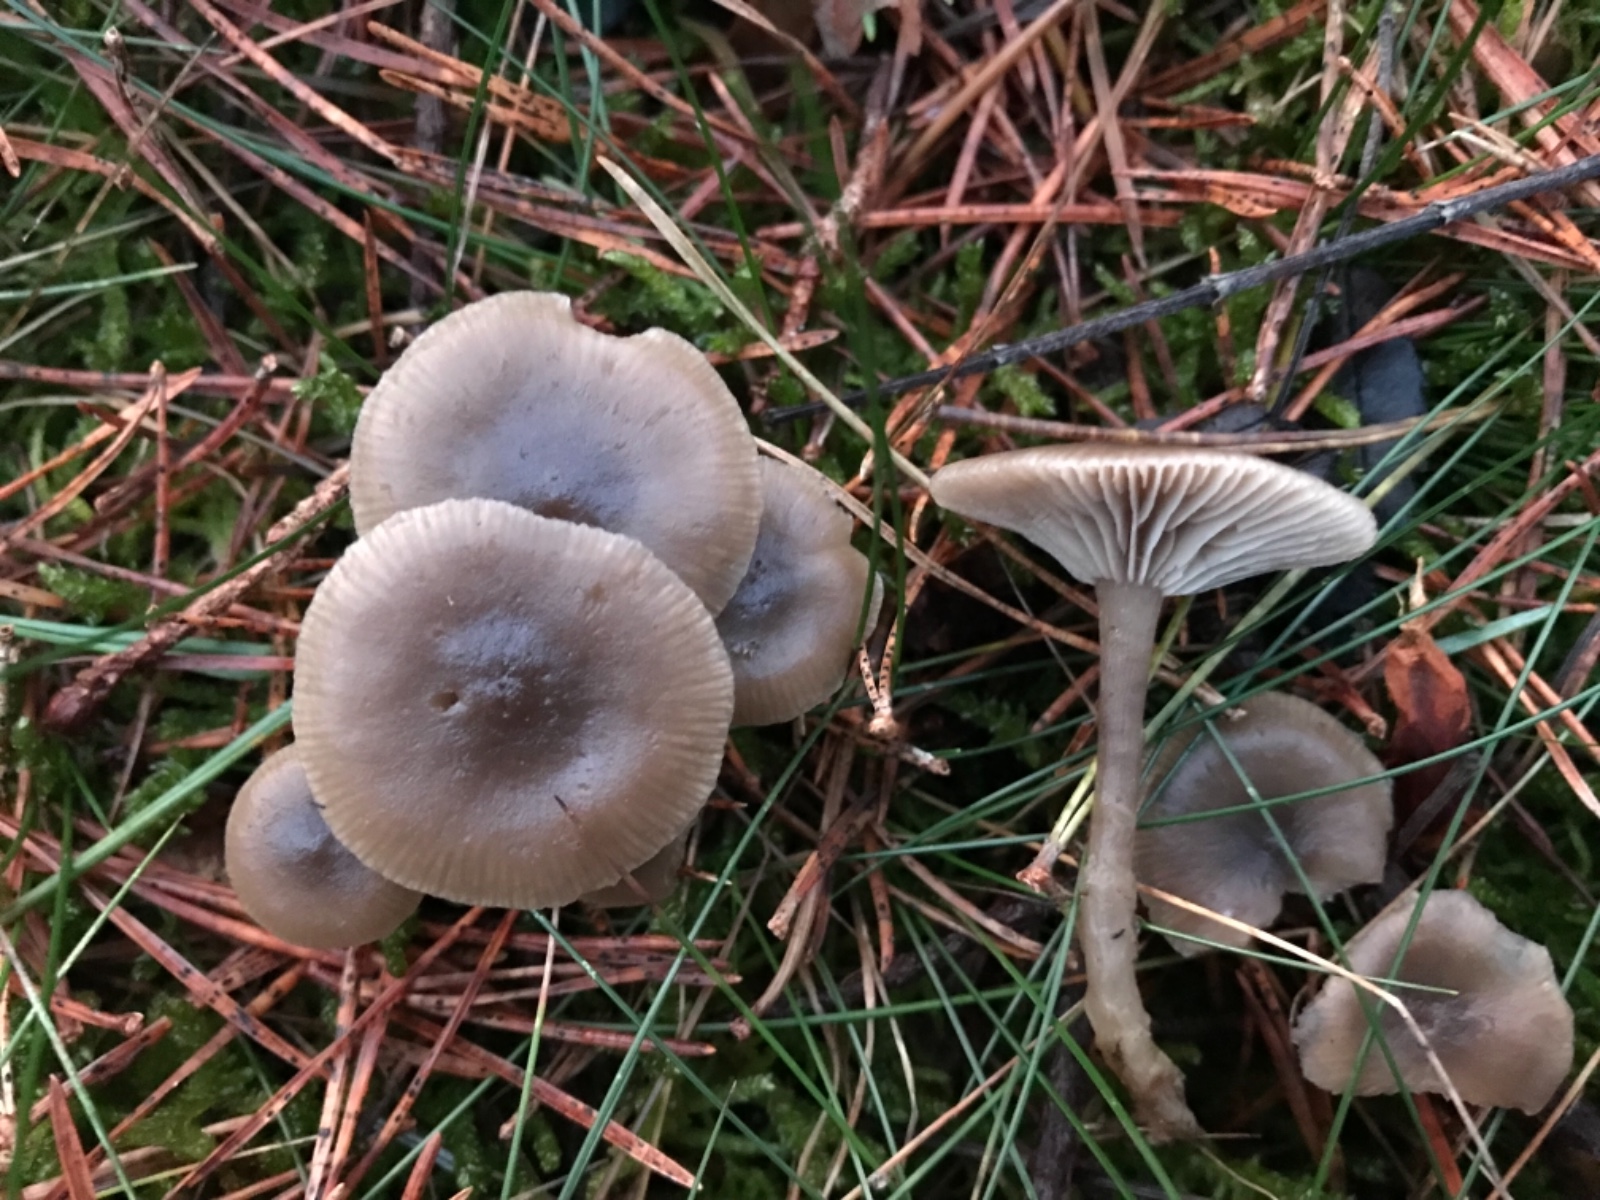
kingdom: Fungi
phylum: Basidiomycota
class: Agaricomycetes
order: Agaricales
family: Tricholomataceae
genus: Clitocybe
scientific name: Clitocybe metachroa
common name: grå tragthat
